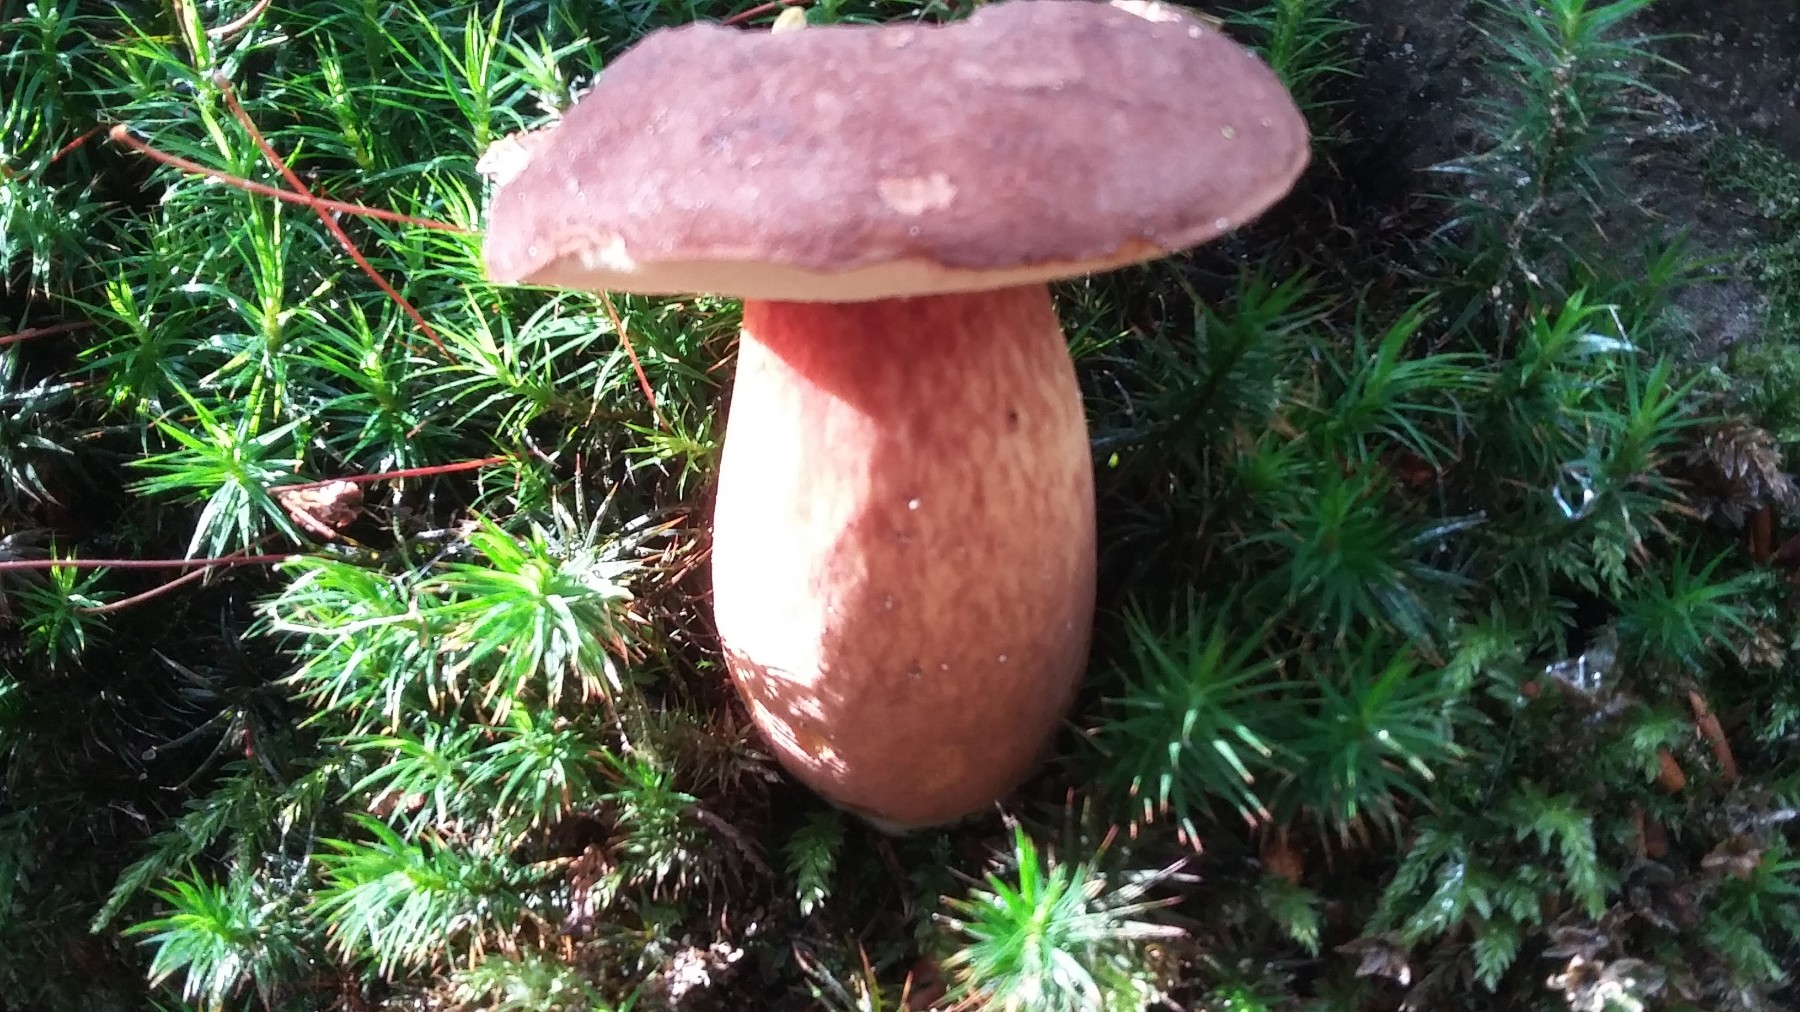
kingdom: Fungi
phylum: Basidiomycota
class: Agaricomycetes
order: Boletales
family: Boletaceae
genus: Imleria
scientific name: Imleria badia
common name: brunstokket rørhat
